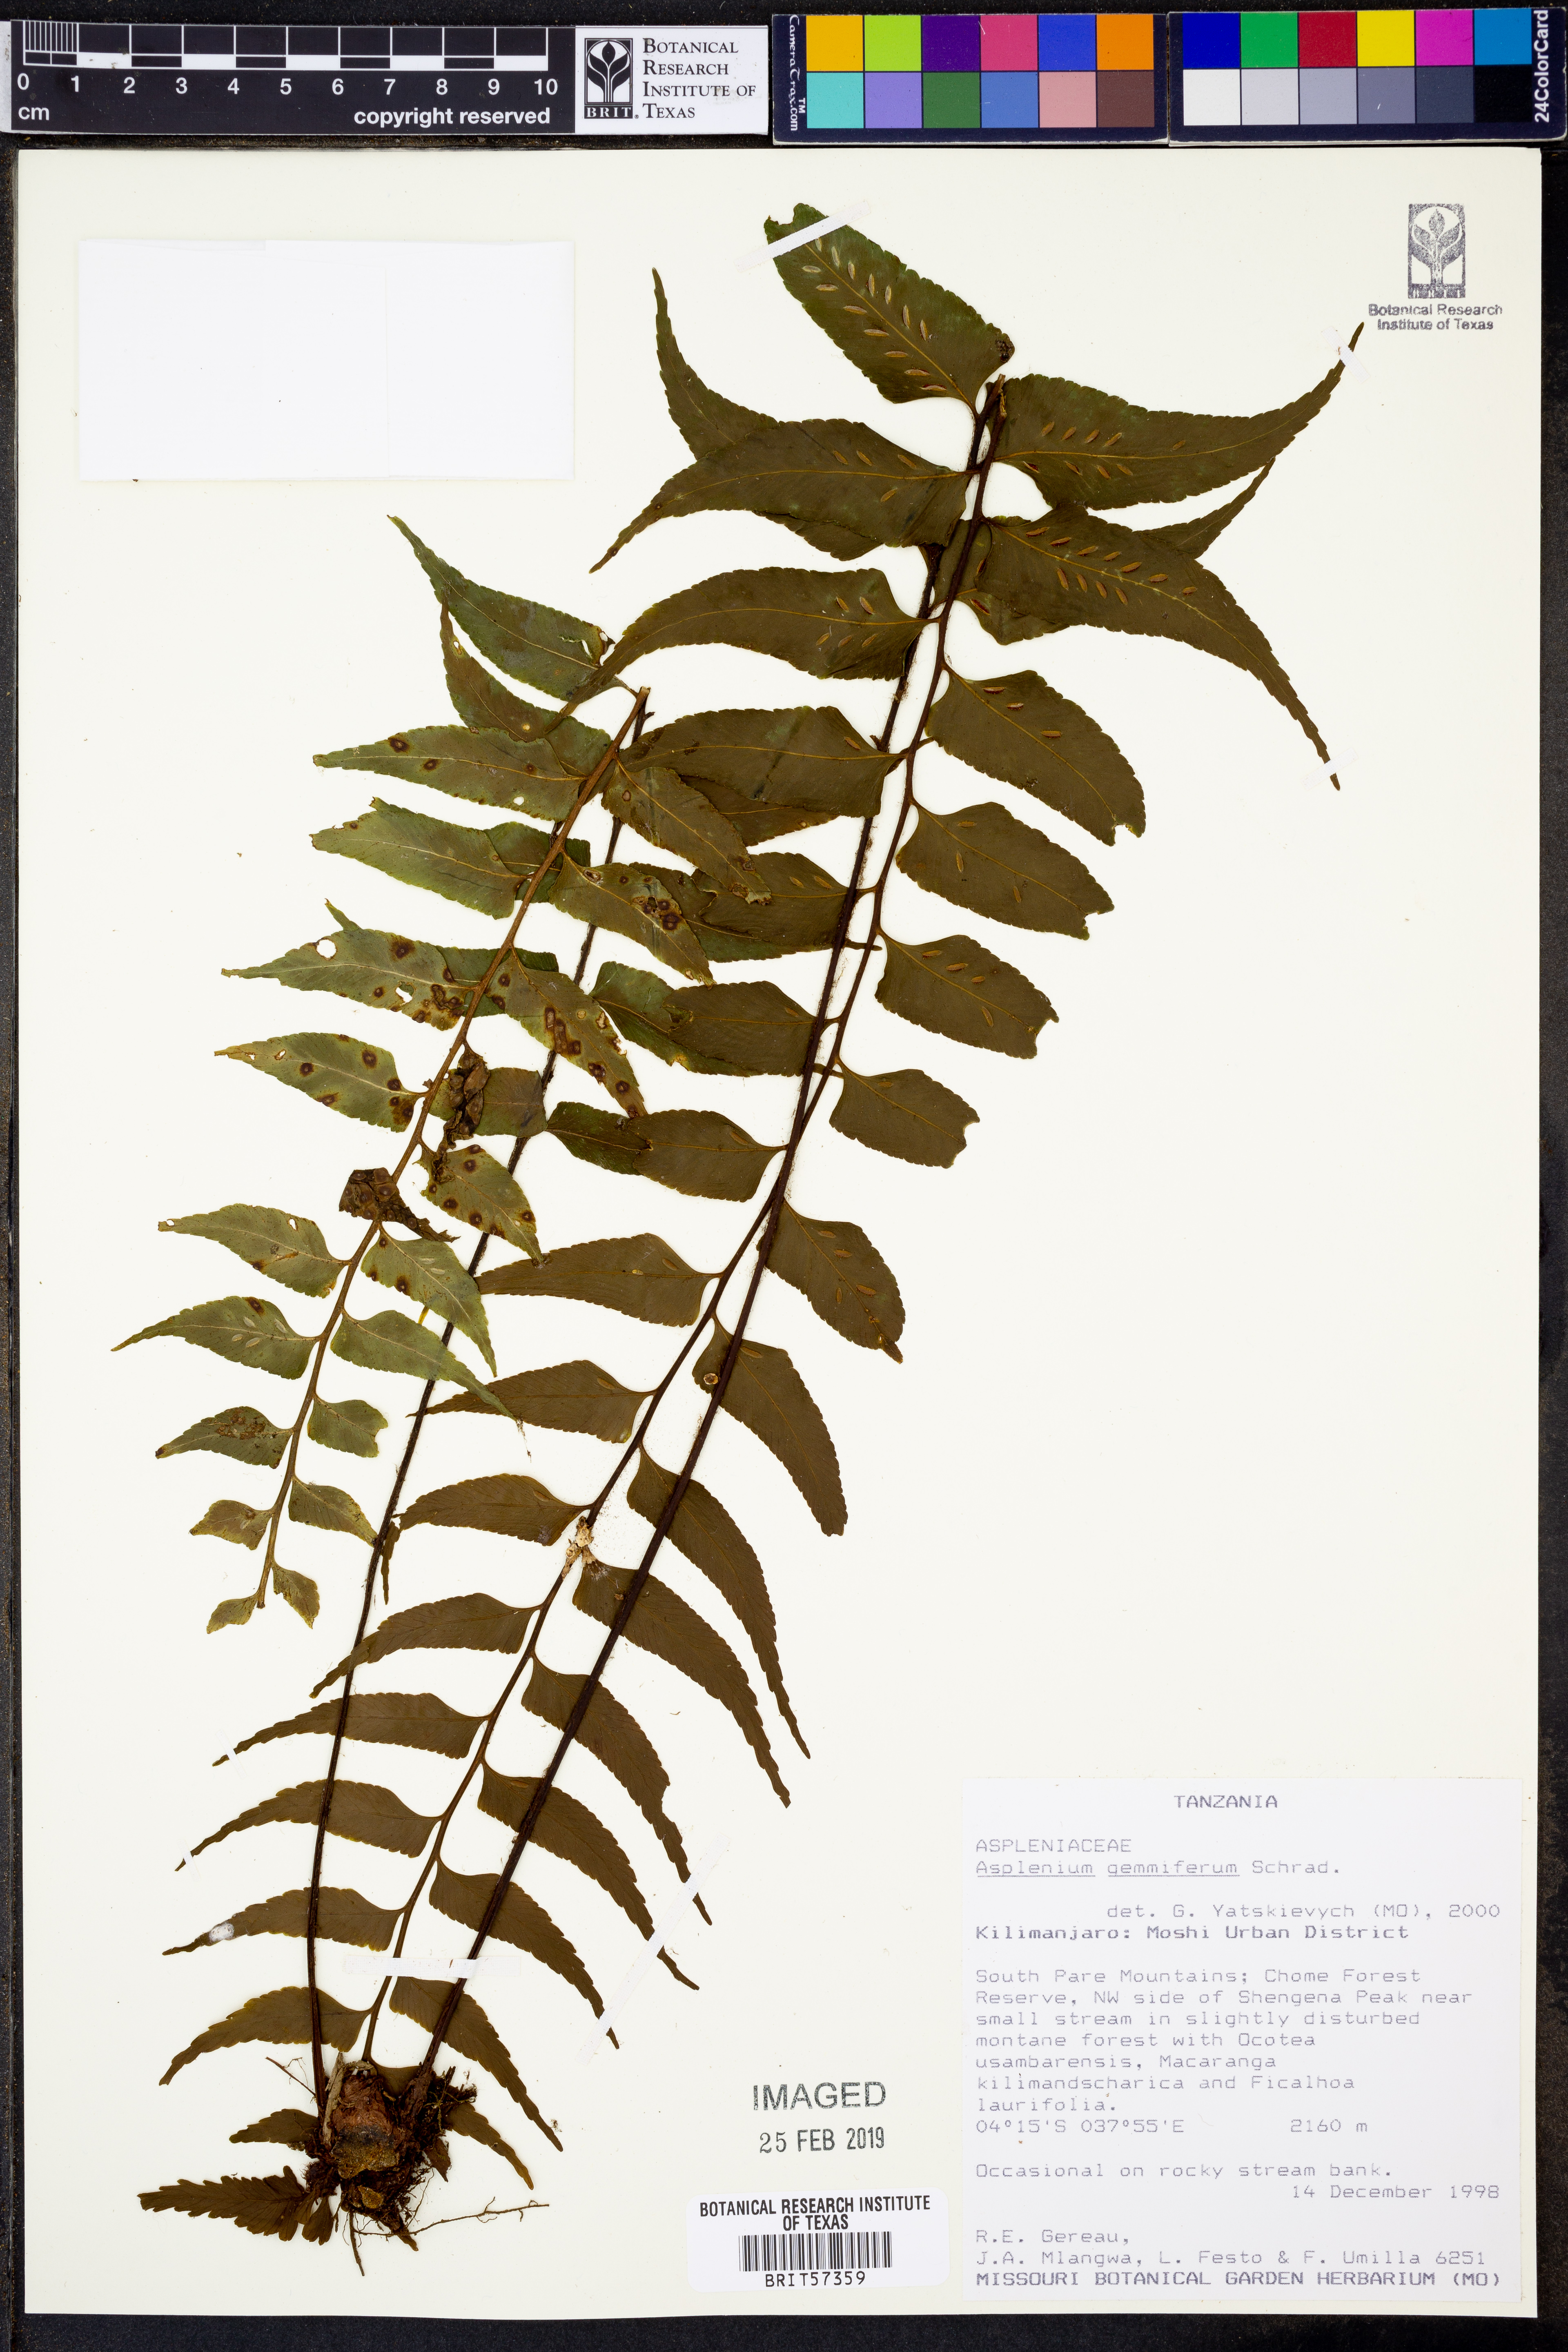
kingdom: Plantae
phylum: Tracheophyta
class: Polypodiopsida
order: Polypodiales
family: Aspleniaceae
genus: Asplenium
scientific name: Asplenium gemmiferum
